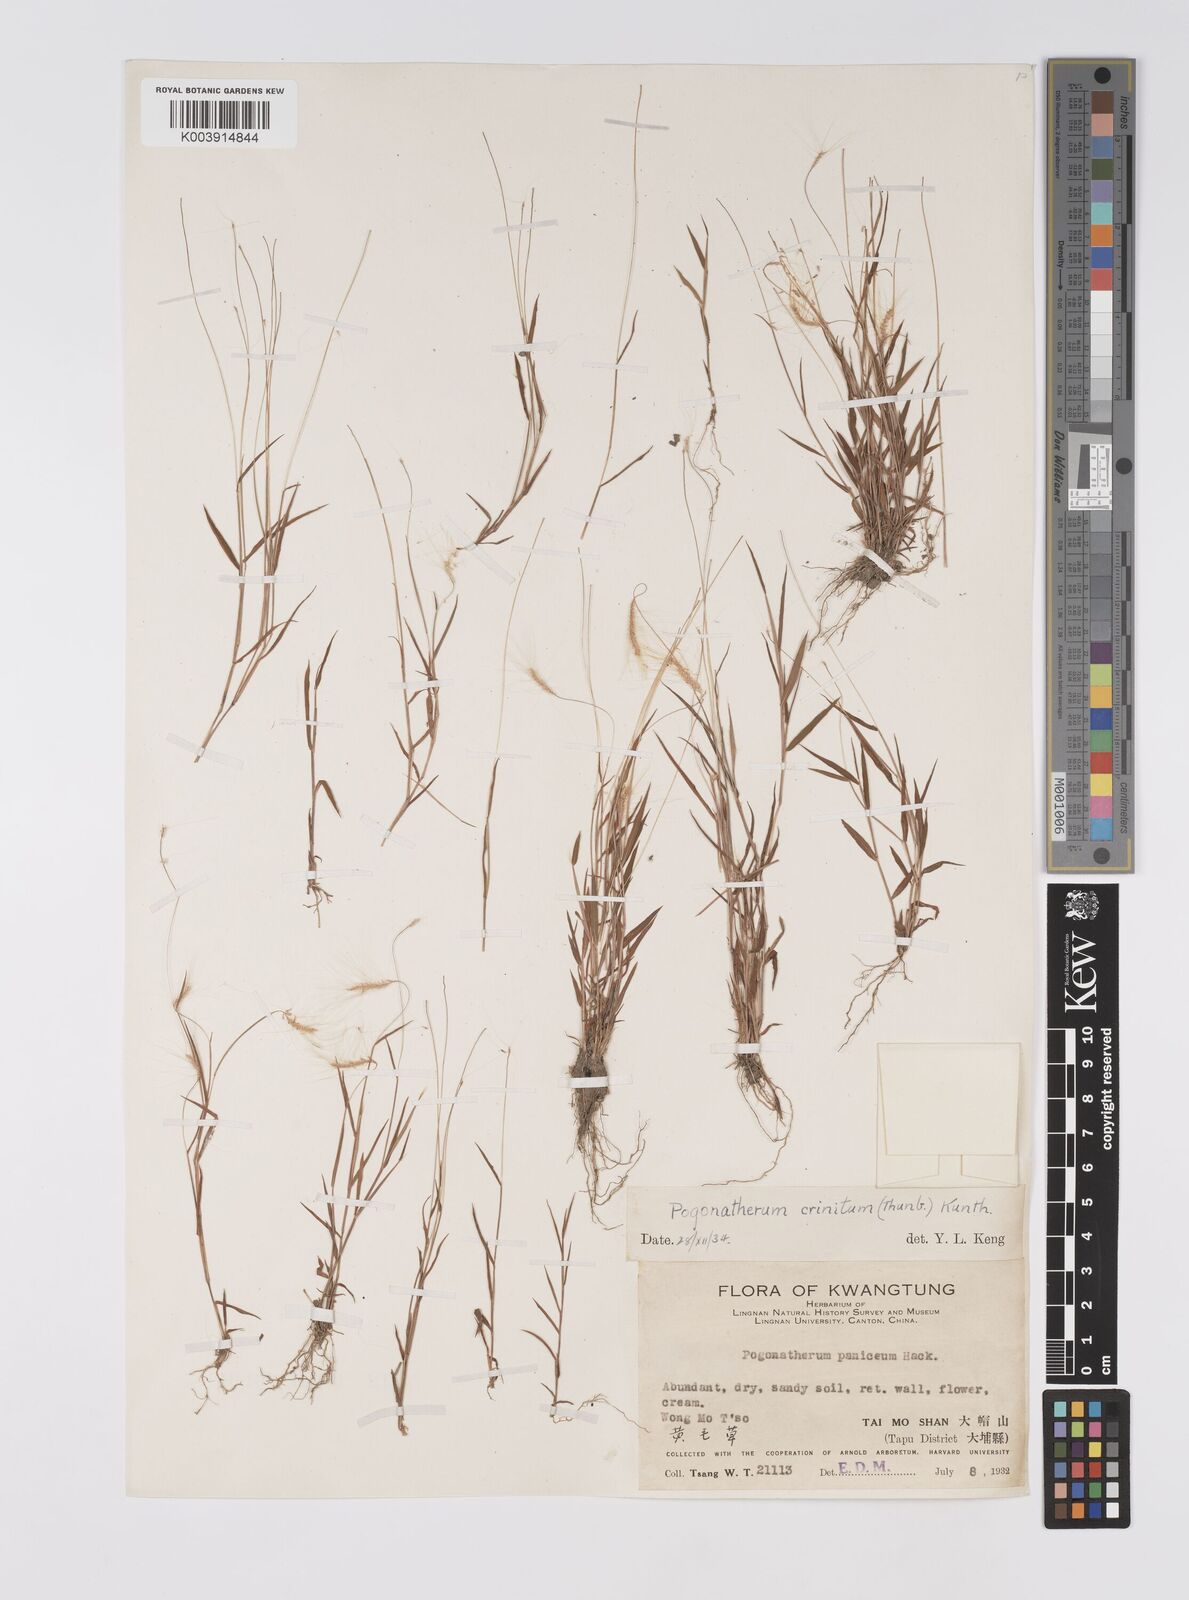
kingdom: Plantae
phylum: Tracheophyta
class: Liliopsida
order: Poales
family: Poaceae
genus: Pogonatherum
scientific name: Pogonatherum crinitum
